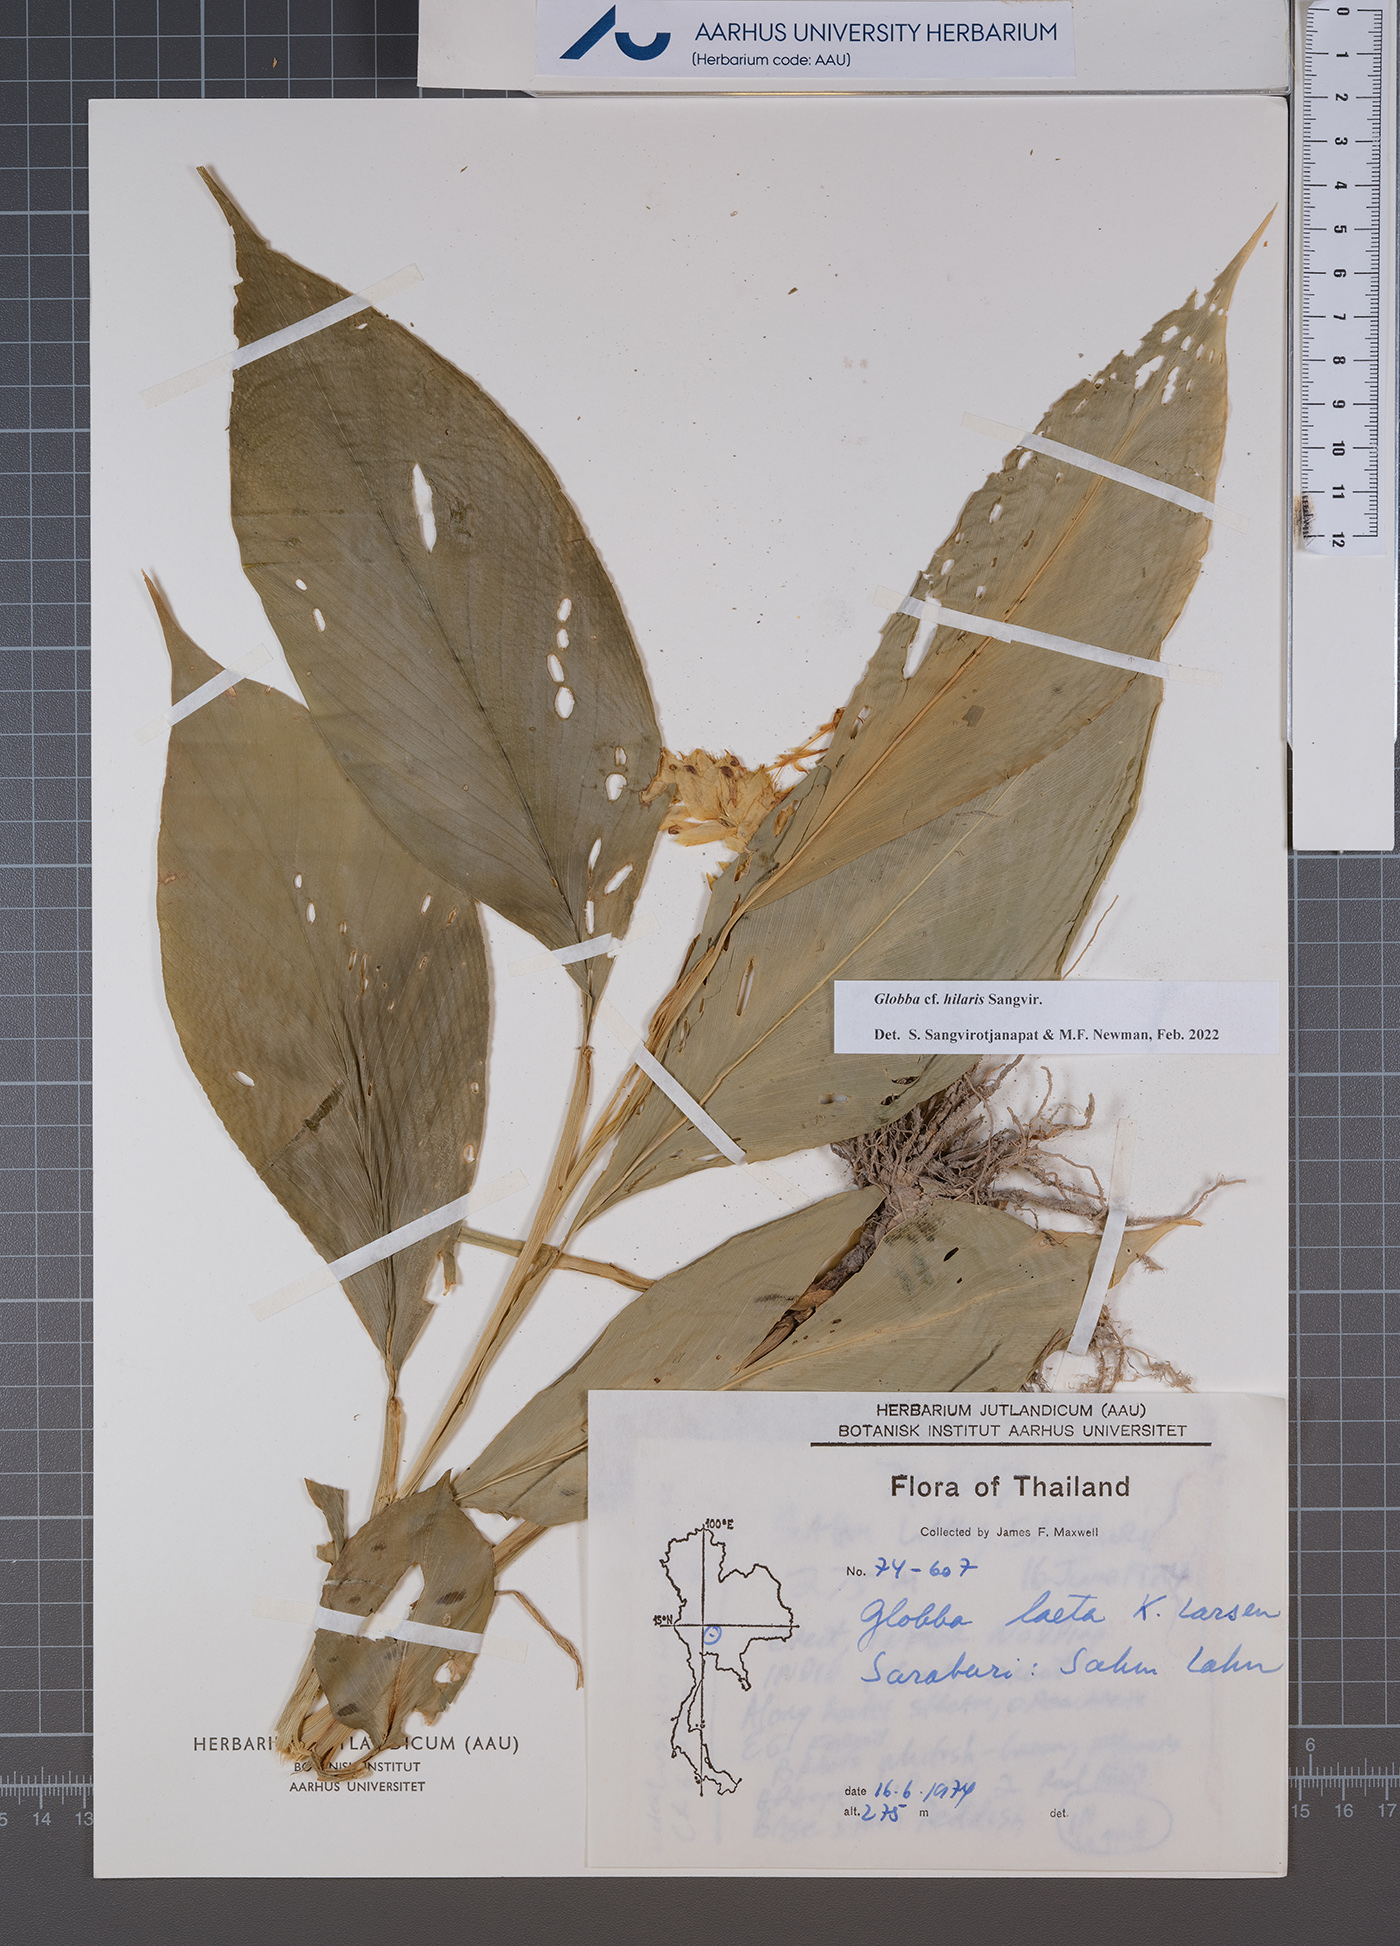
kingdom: Plantae
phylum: Tracheophyta
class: Liliopsida
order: Zingiberales
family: Zingiberaceae
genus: Globba
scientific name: Globba hilaris
